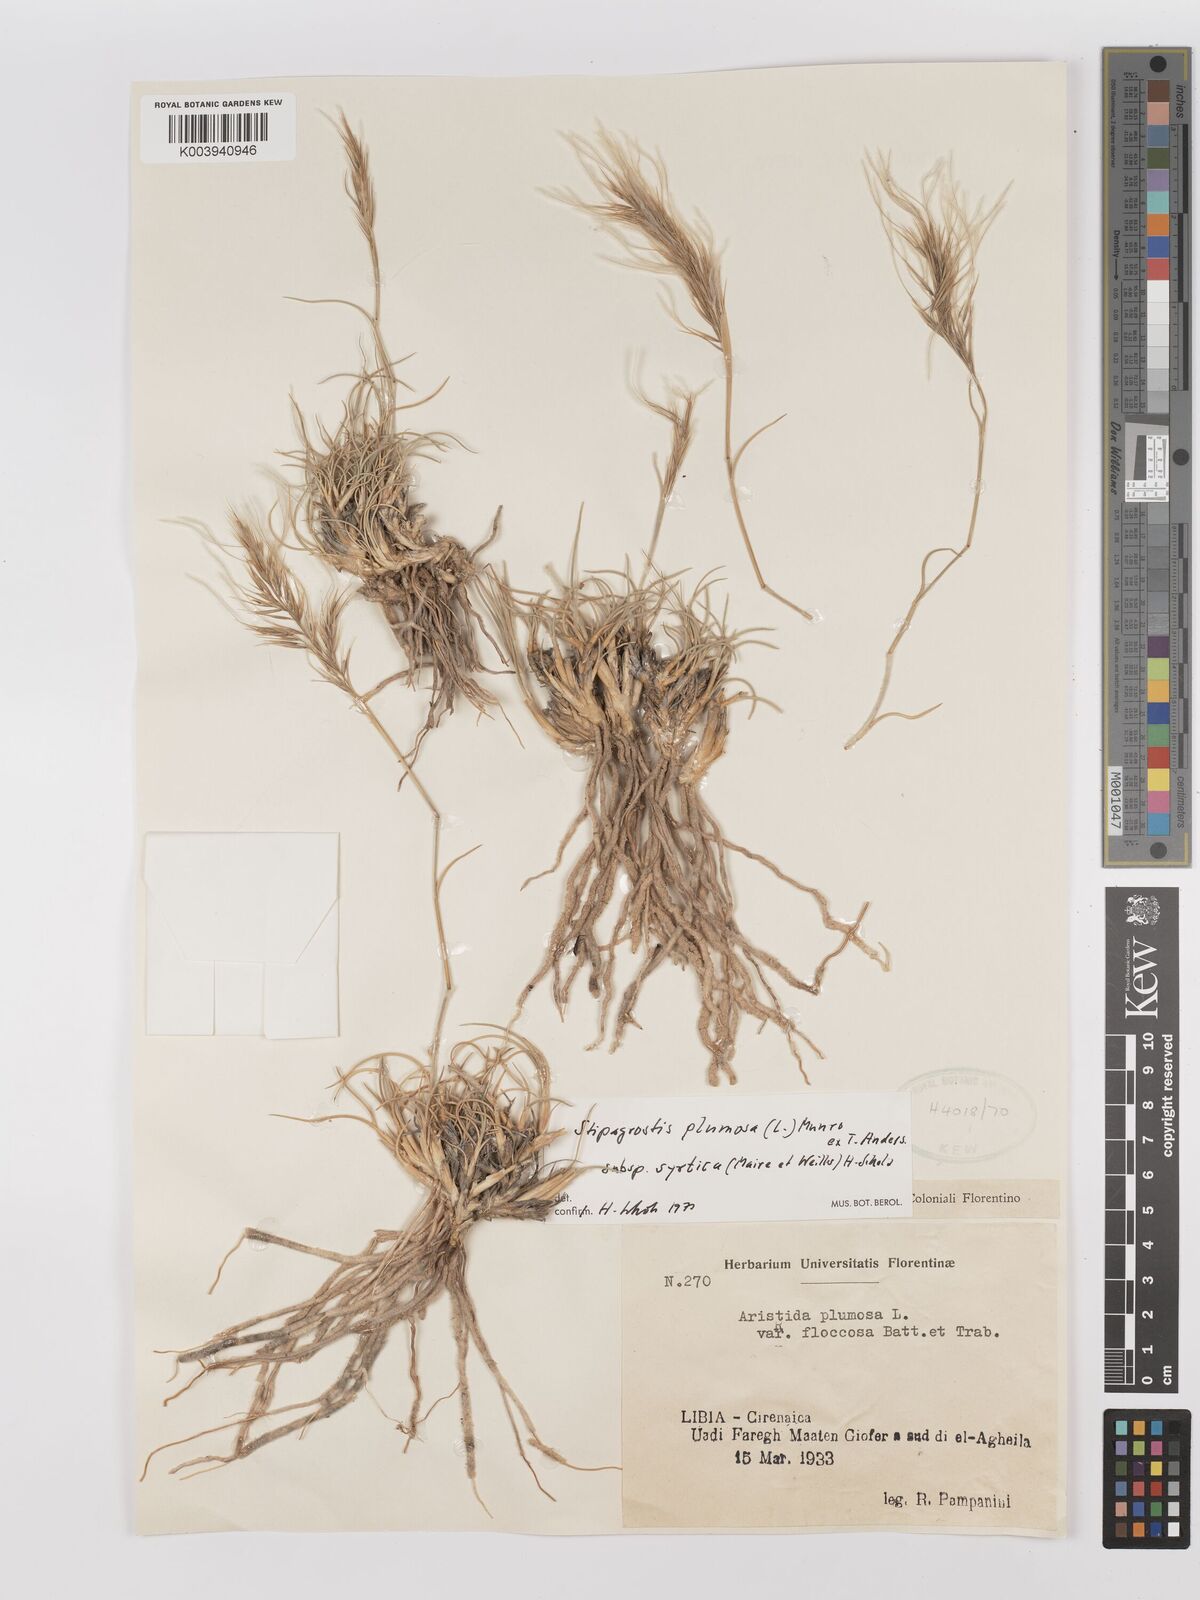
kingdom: Plantae
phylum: Tracheophyta
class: Liliopsida
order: Poales
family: Poaceae
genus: Stipagrostis
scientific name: Stipagrostis plumosa
